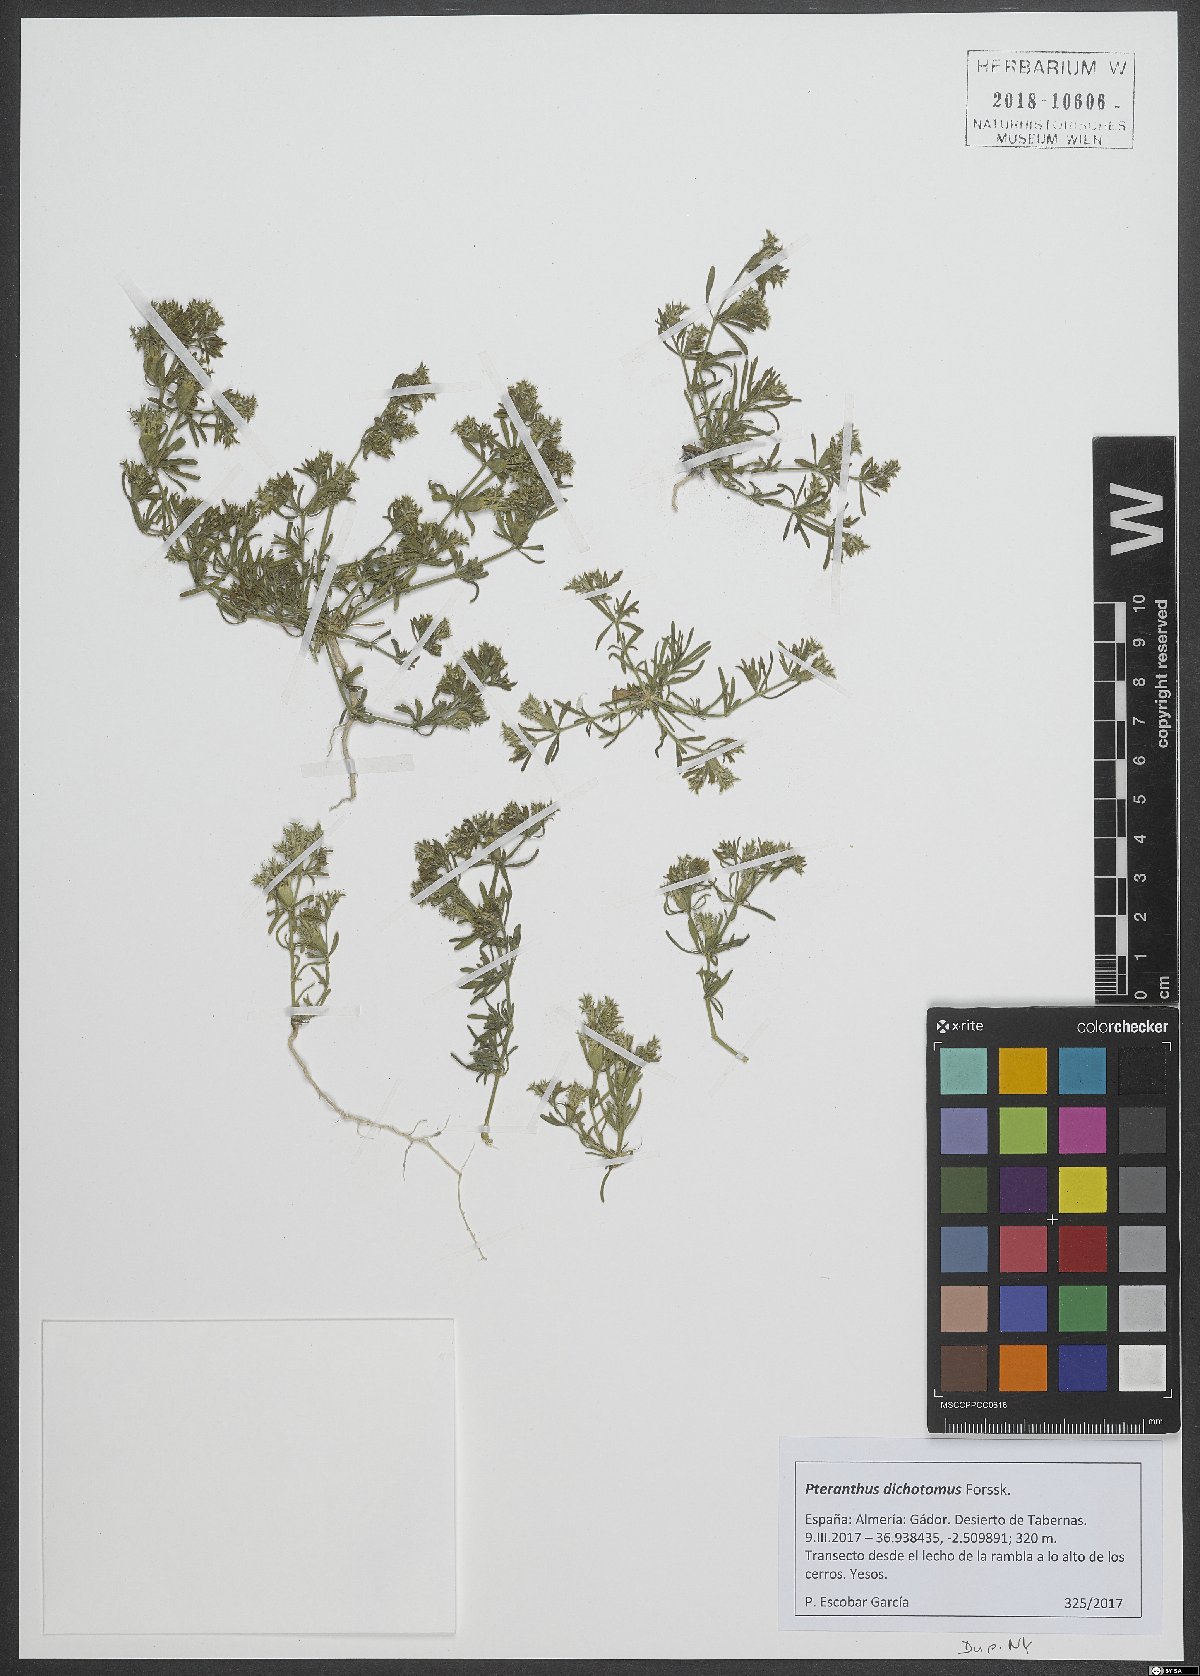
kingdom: Plantae
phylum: Tracheophyta
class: Magnoliopsida
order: Caryophyllales
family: Caryophyllaceae
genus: Pteranthus
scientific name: Pteranthus dichotomus
